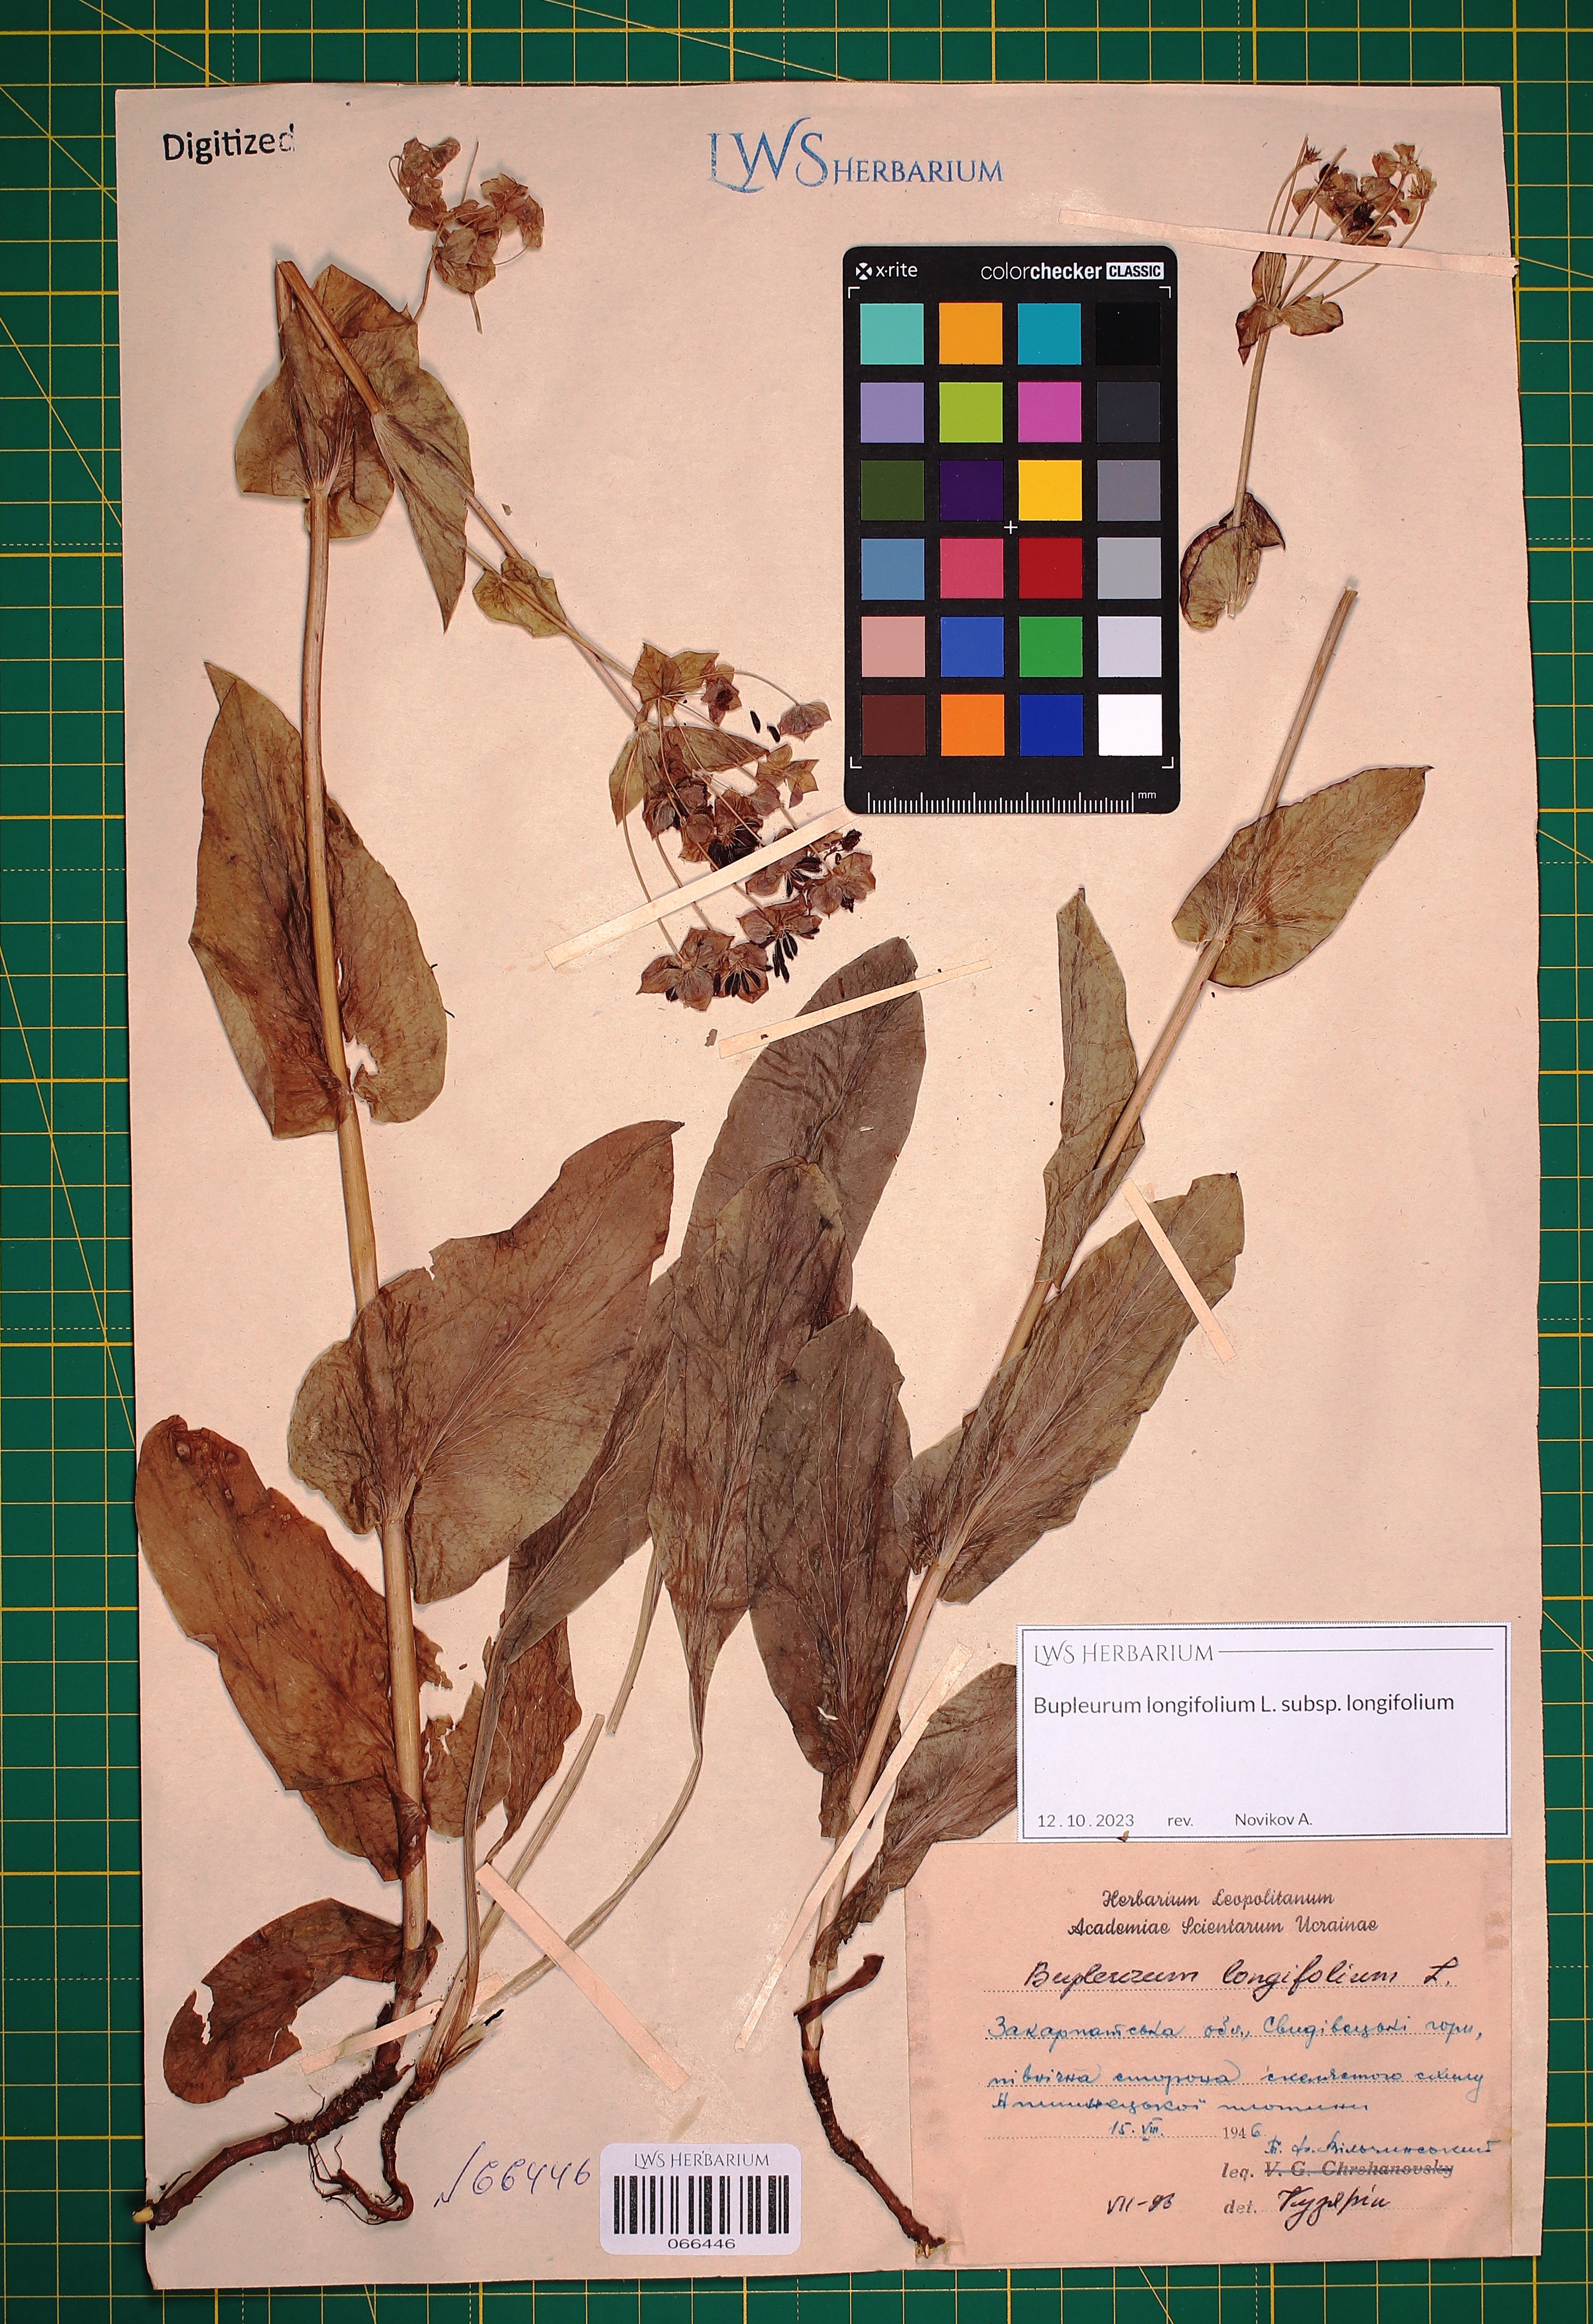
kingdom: Plantae
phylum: Tracheophyta
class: Magnoliopsida
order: Apiales
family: Apiaceae
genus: Bupleurum
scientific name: Bupleurum longifolium
